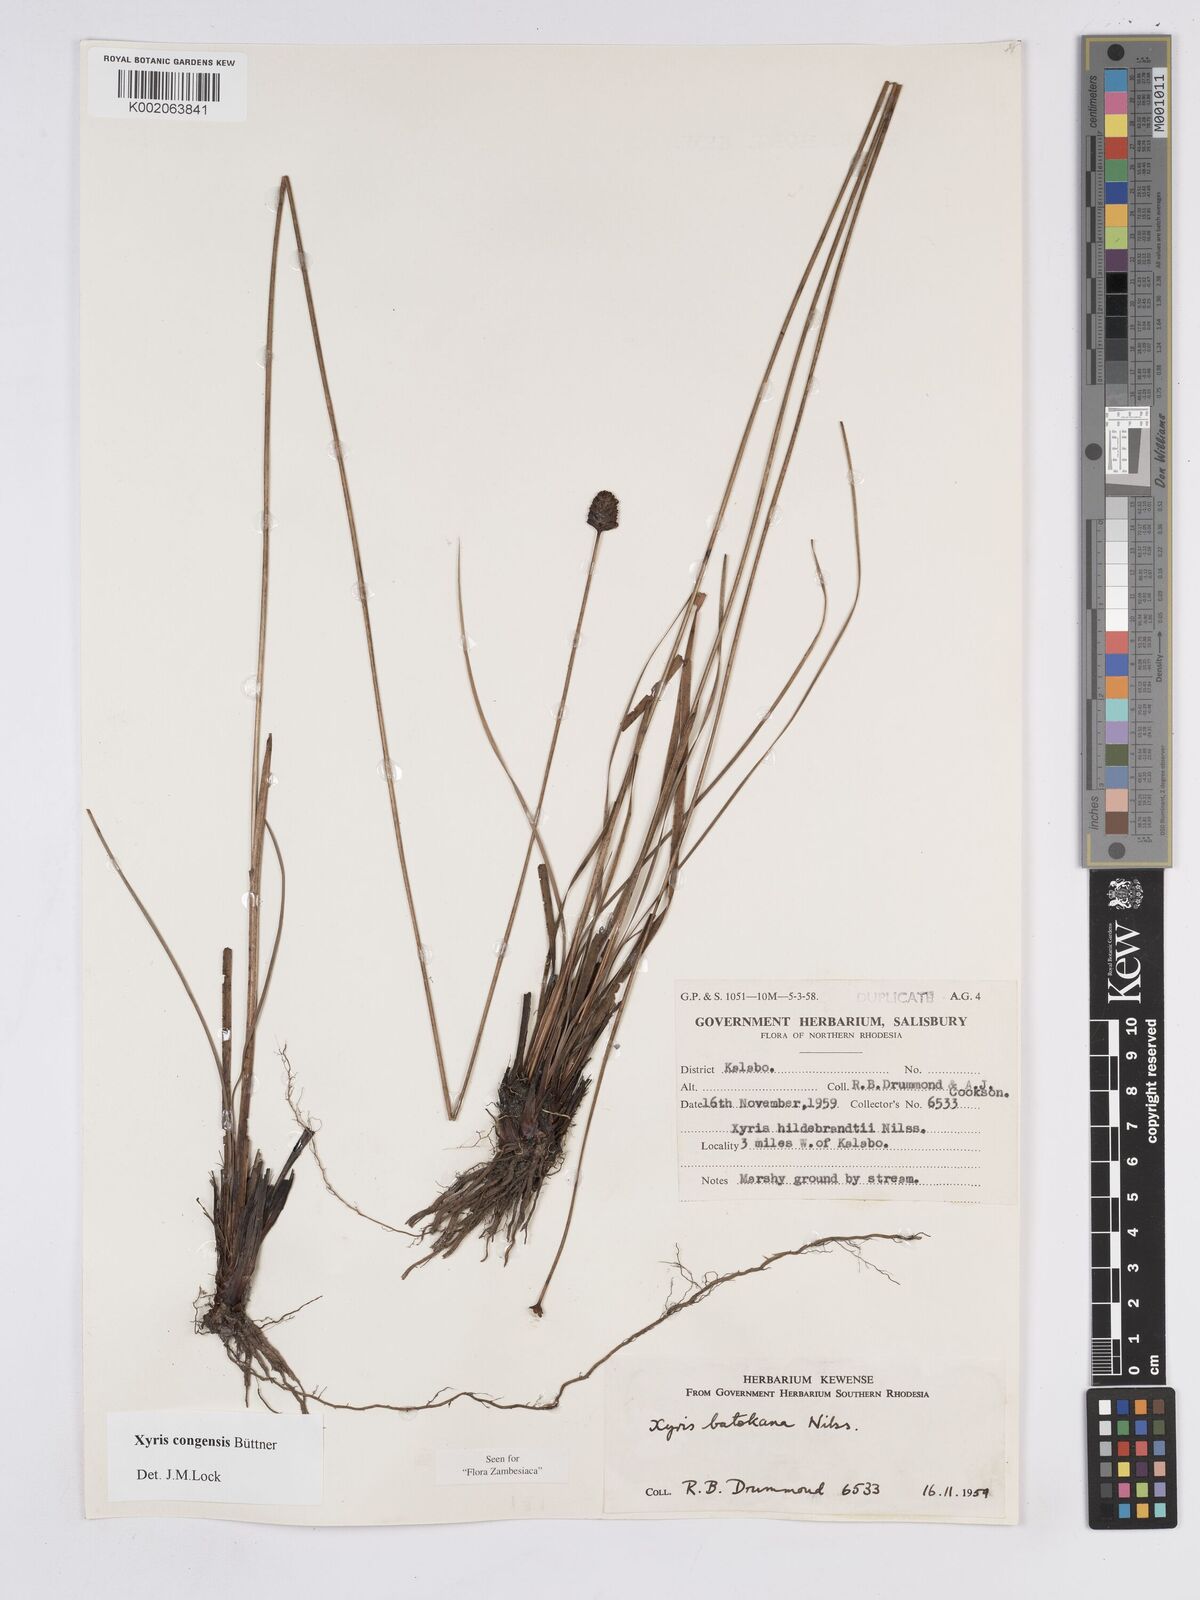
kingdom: Plantae
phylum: Tracheophyta
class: Liliopsida
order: Poales
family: Xyridaceae
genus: Xyris
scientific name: Xyris congensis
